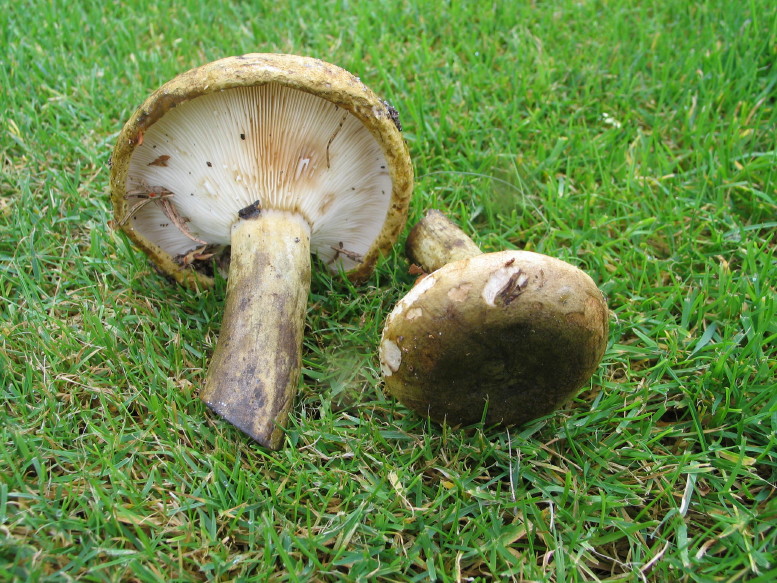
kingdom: Fungi
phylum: Basidiomycota
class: Agaricomycetes
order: Russulales
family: Russulaceae
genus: Lactarius
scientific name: Lactarius necator
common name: manddraber-mælkehat
